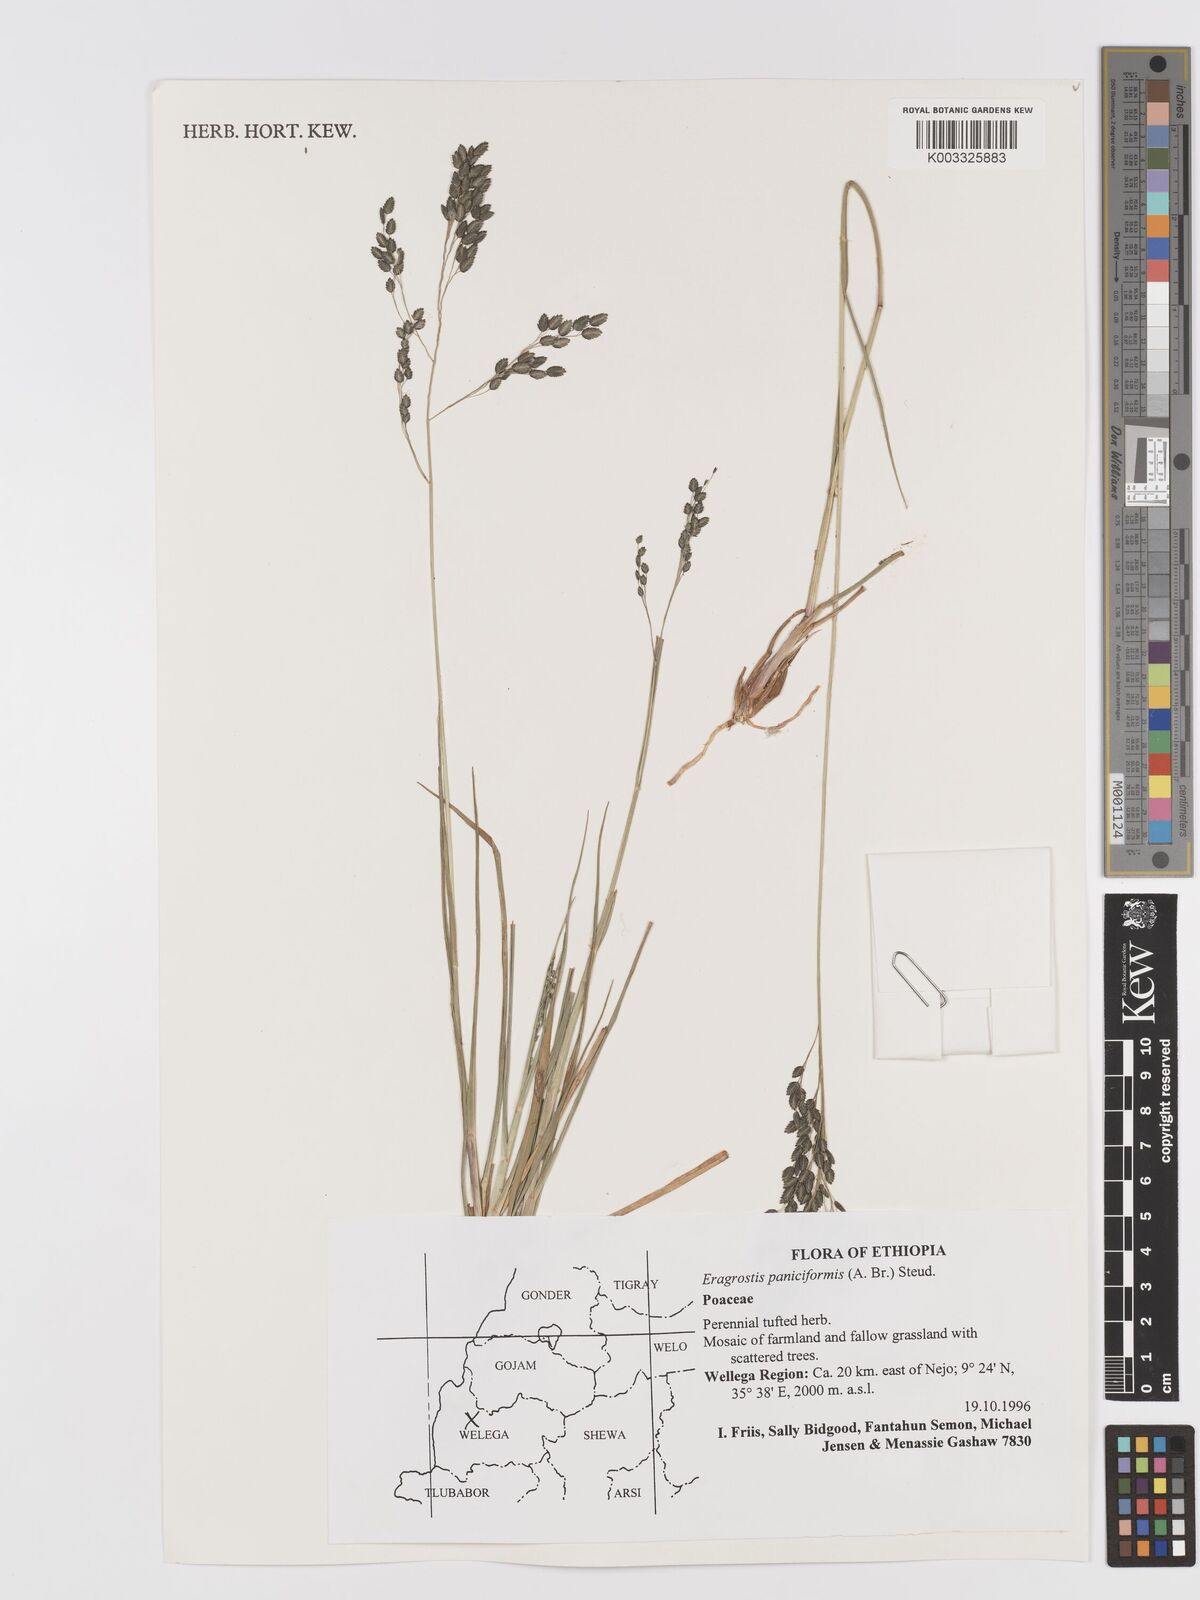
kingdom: Plantae
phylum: Tracheophyta
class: Liliopsida
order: Poales
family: Poaceae
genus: Eragrostis
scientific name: Eragrostis paniciformis
